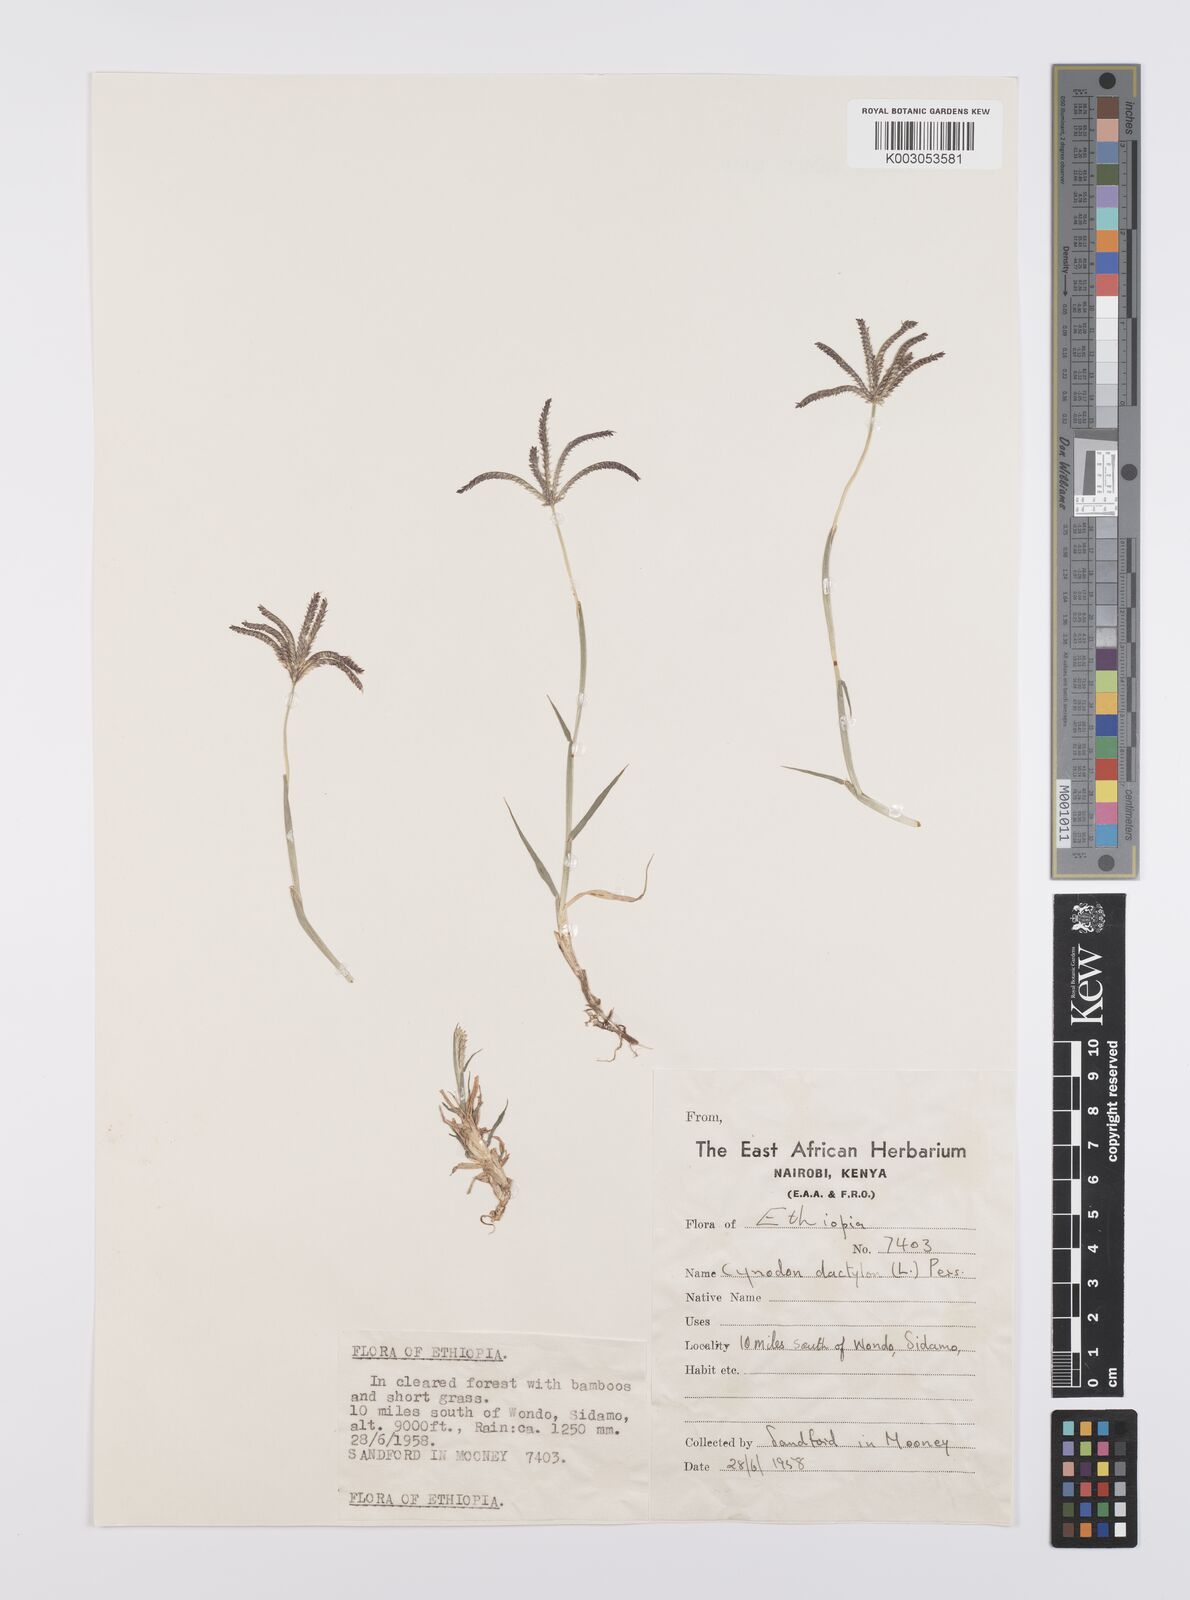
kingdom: Plantae
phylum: Tracheophyta
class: Liliopsida
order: Poales
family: Poaceae
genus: Cynodon
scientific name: Cynodon dactylon
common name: Bermuda grass
